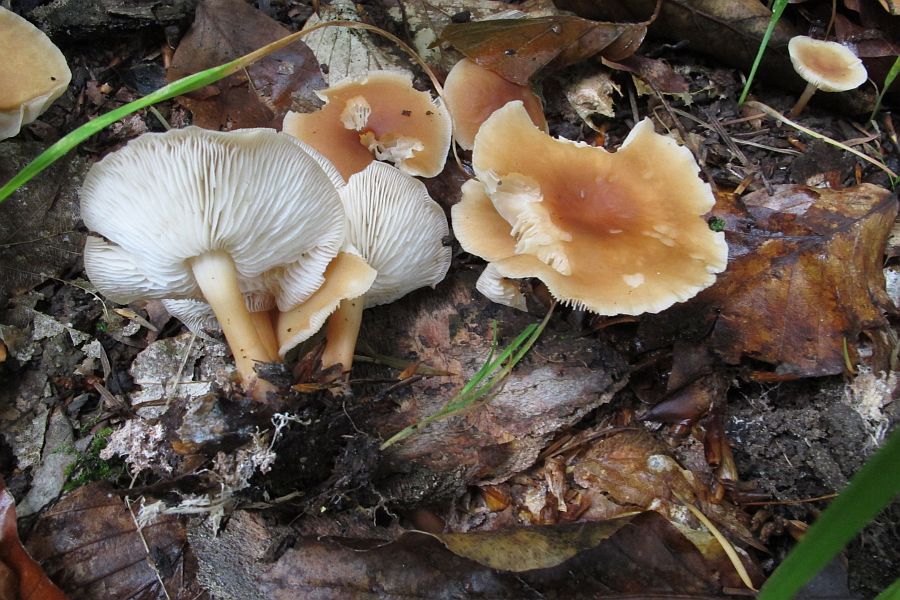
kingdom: Fungi
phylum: Basidiomycota
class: Agaricomycetes
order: Agaricales
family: Omphalotaceae
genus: Gymnopus
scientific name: Gymnopus dryophilus
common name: løv-fladhat
